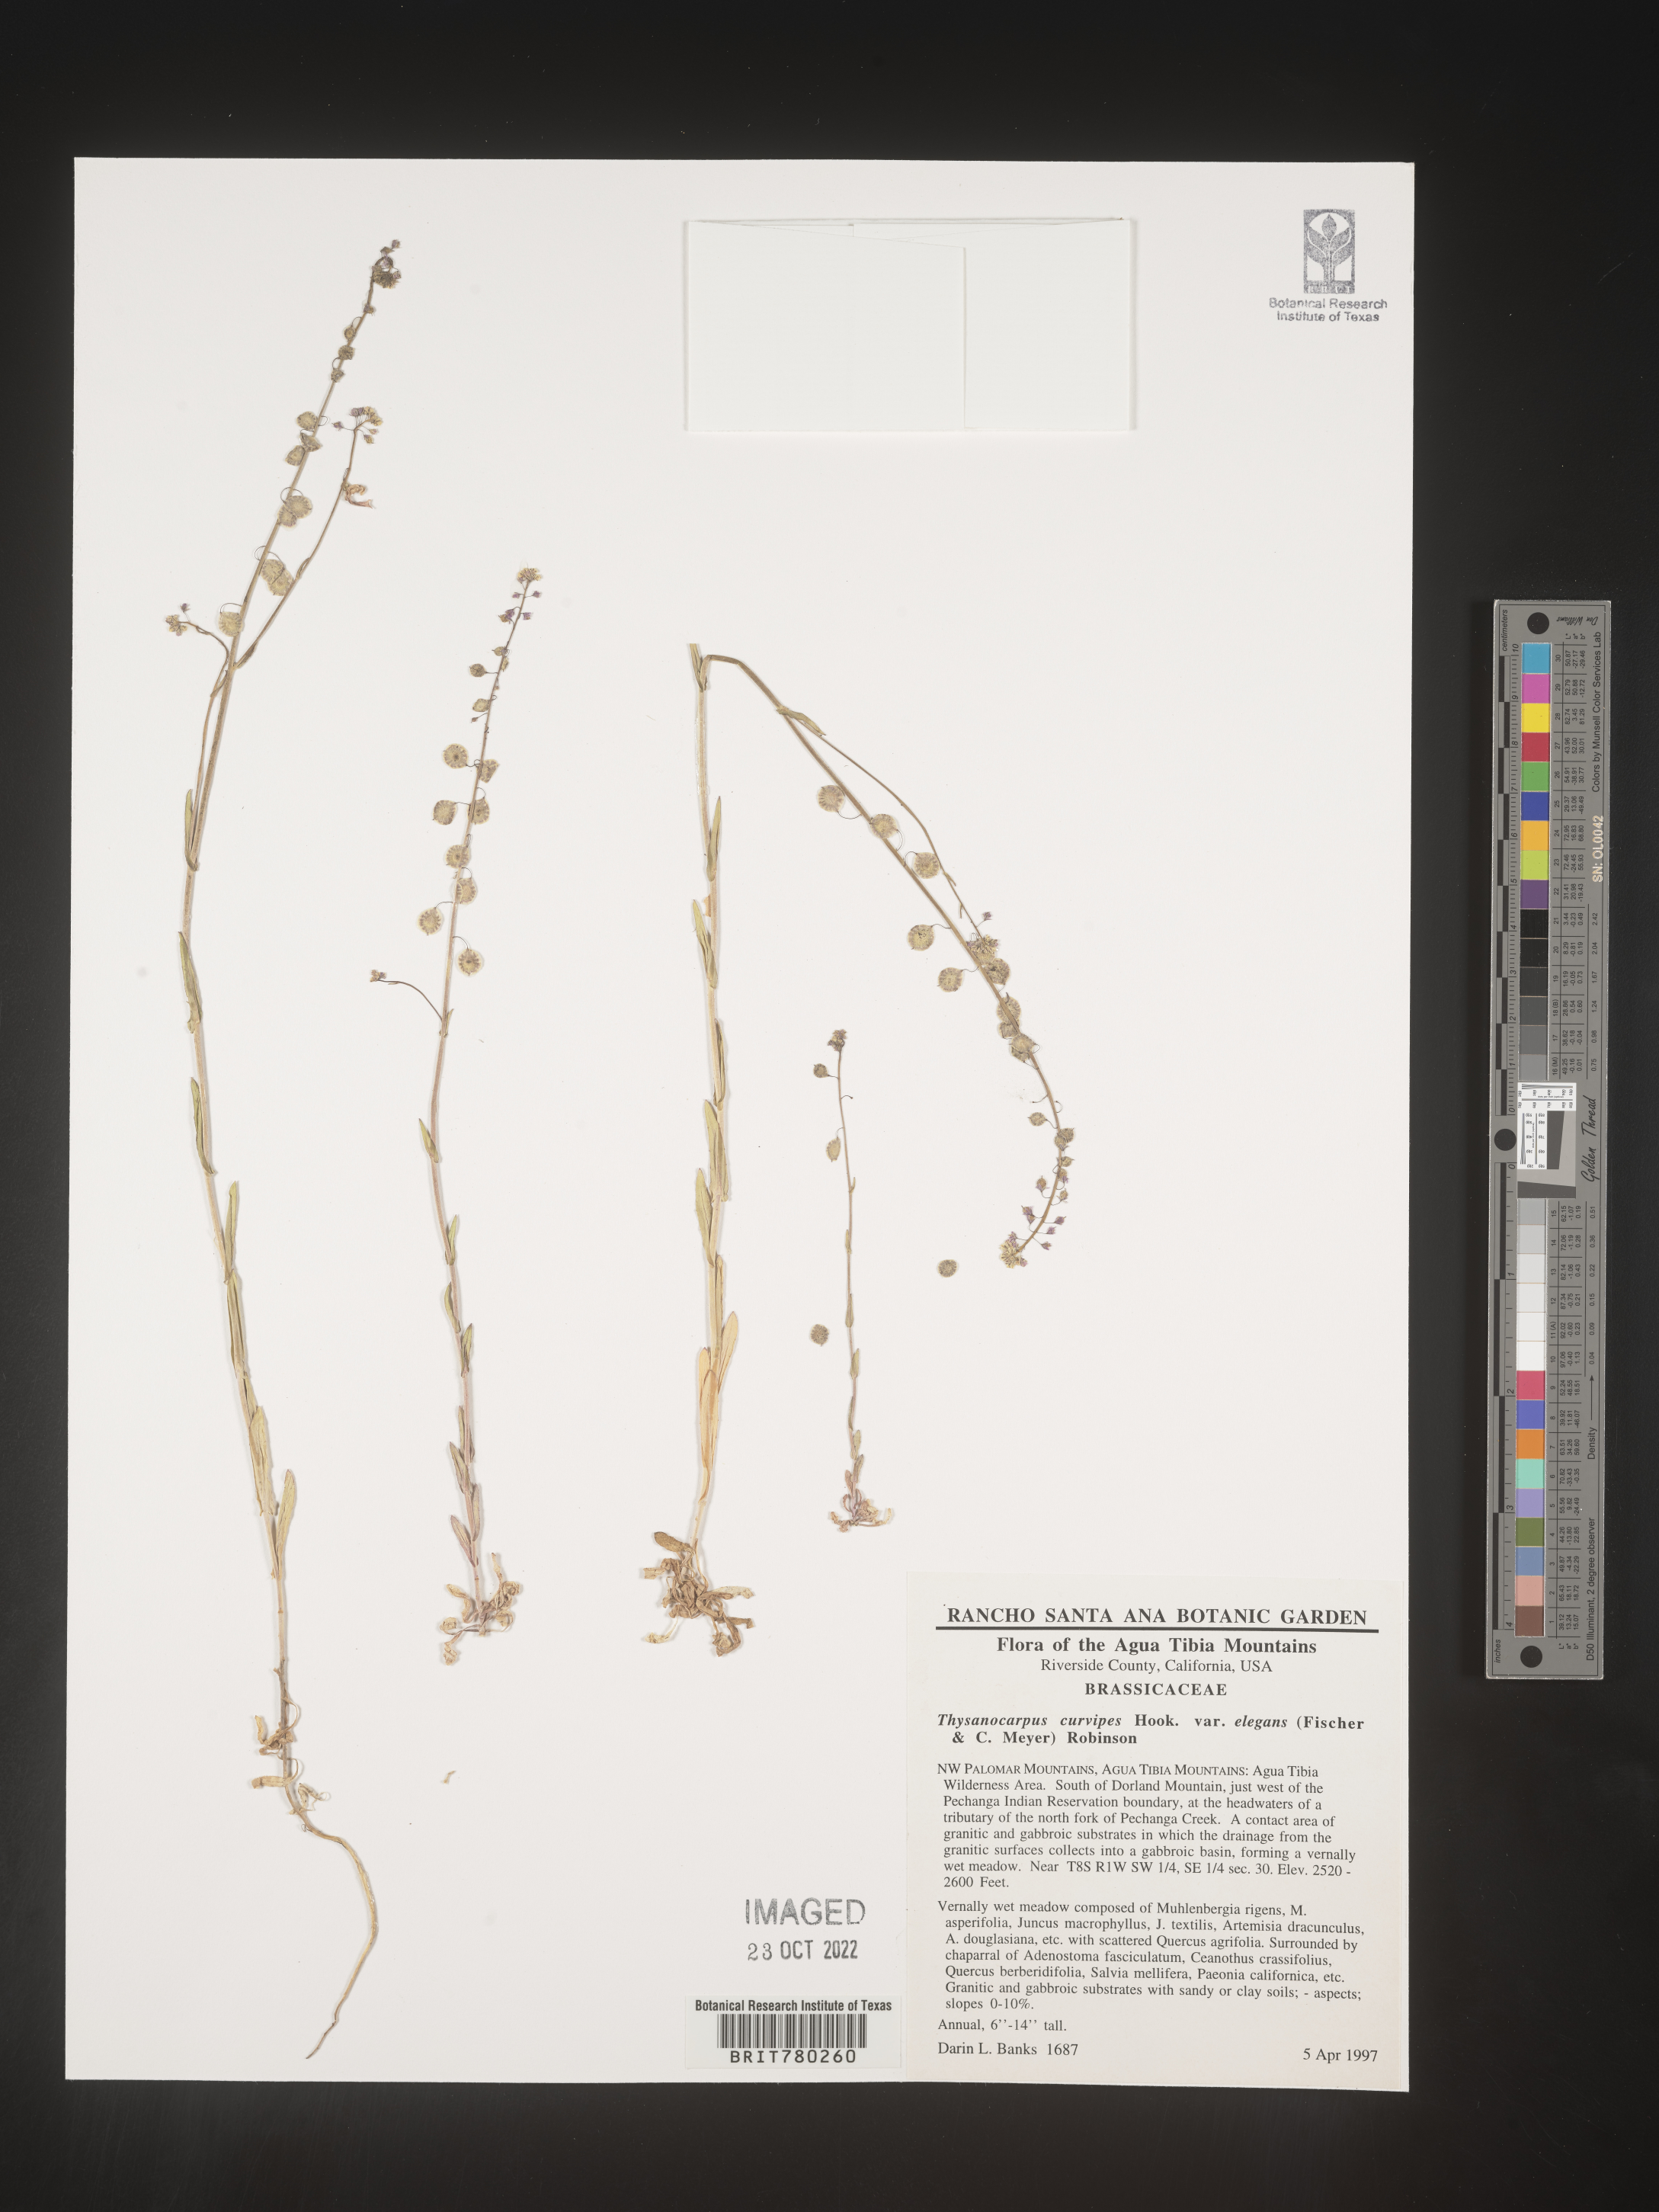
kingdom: Plantae
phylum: Tracheophyta
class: Magnoliopsida
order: Brassicales
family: Brassicaceae
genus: Thysanocarpus
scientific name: Thysanocarpus
